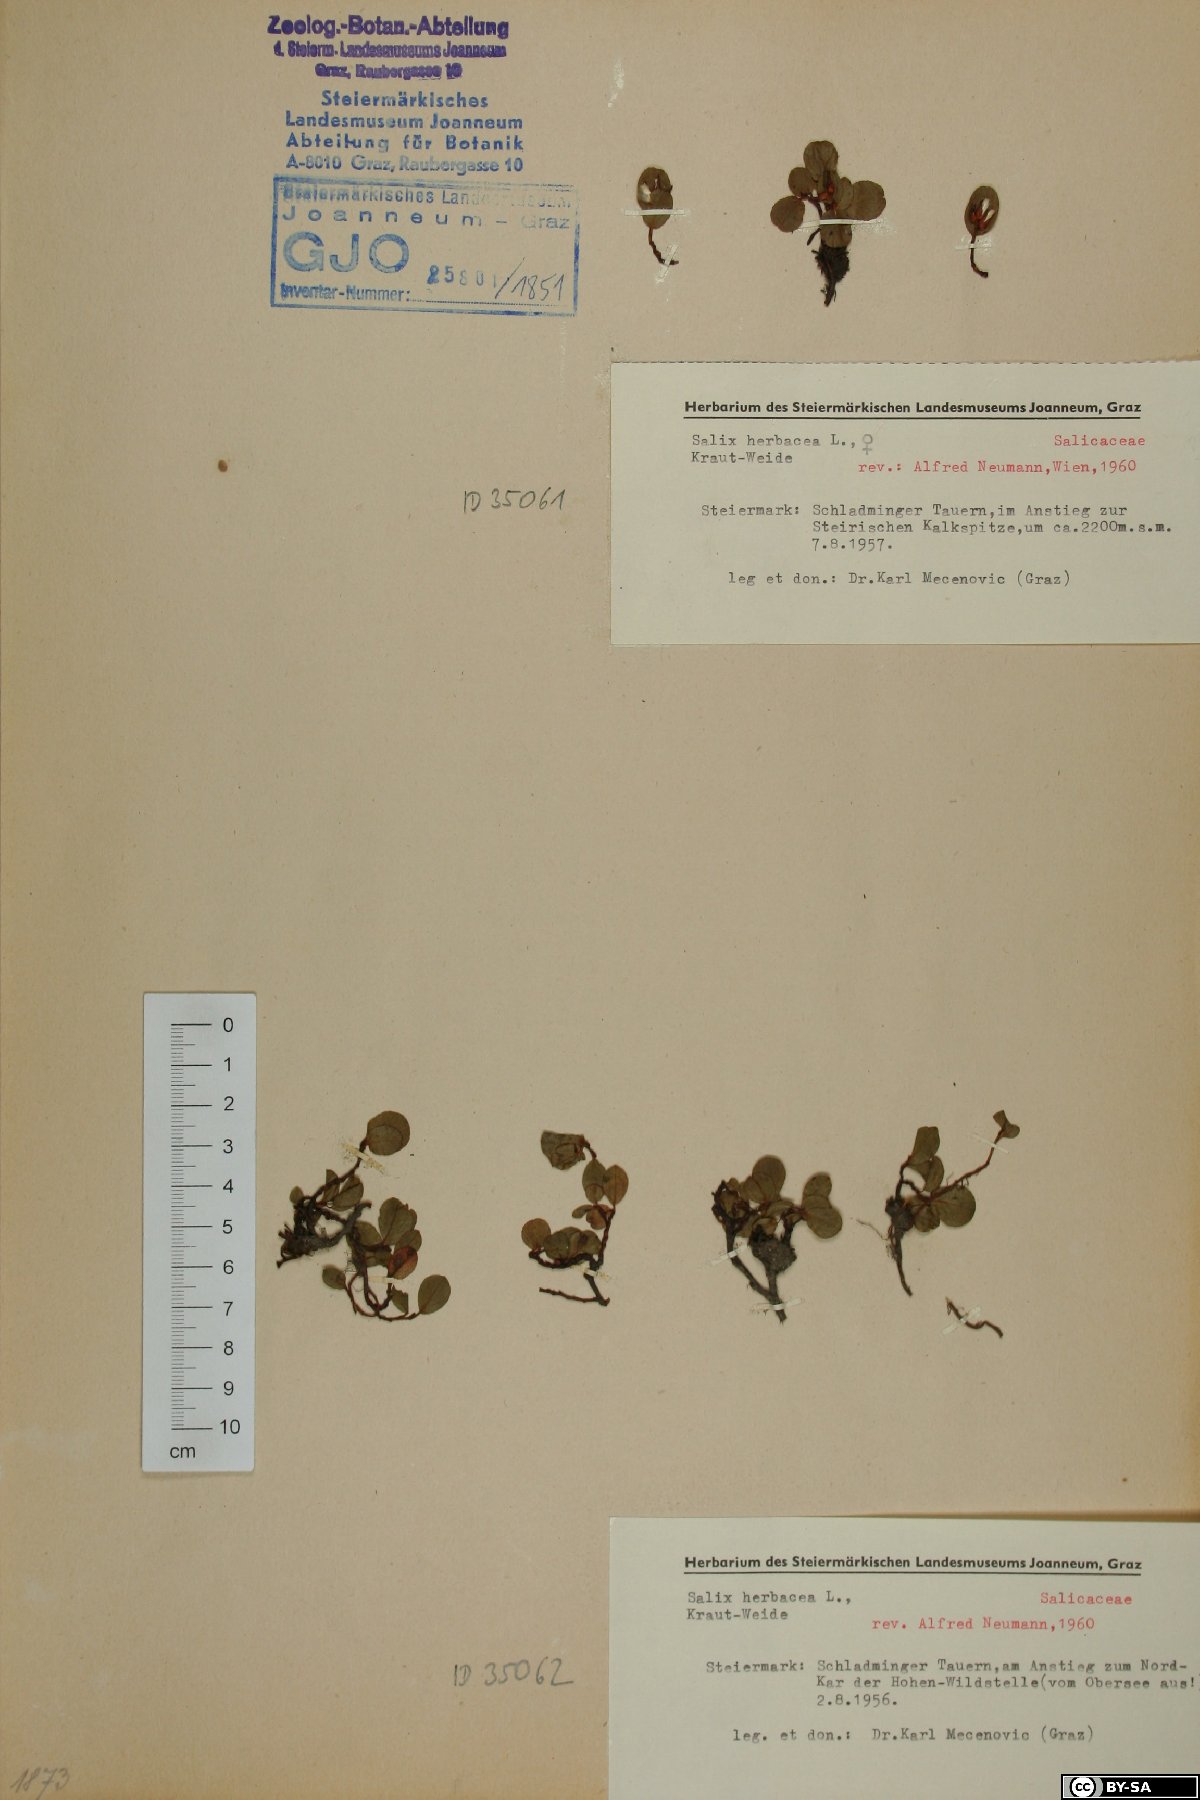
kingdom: Plantae
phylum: Tracheophyta
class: Magnoliopsida
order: Malpighiales
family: Salicaceae
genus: Salix
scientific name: Salix herbacea
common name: Dwarf willow
